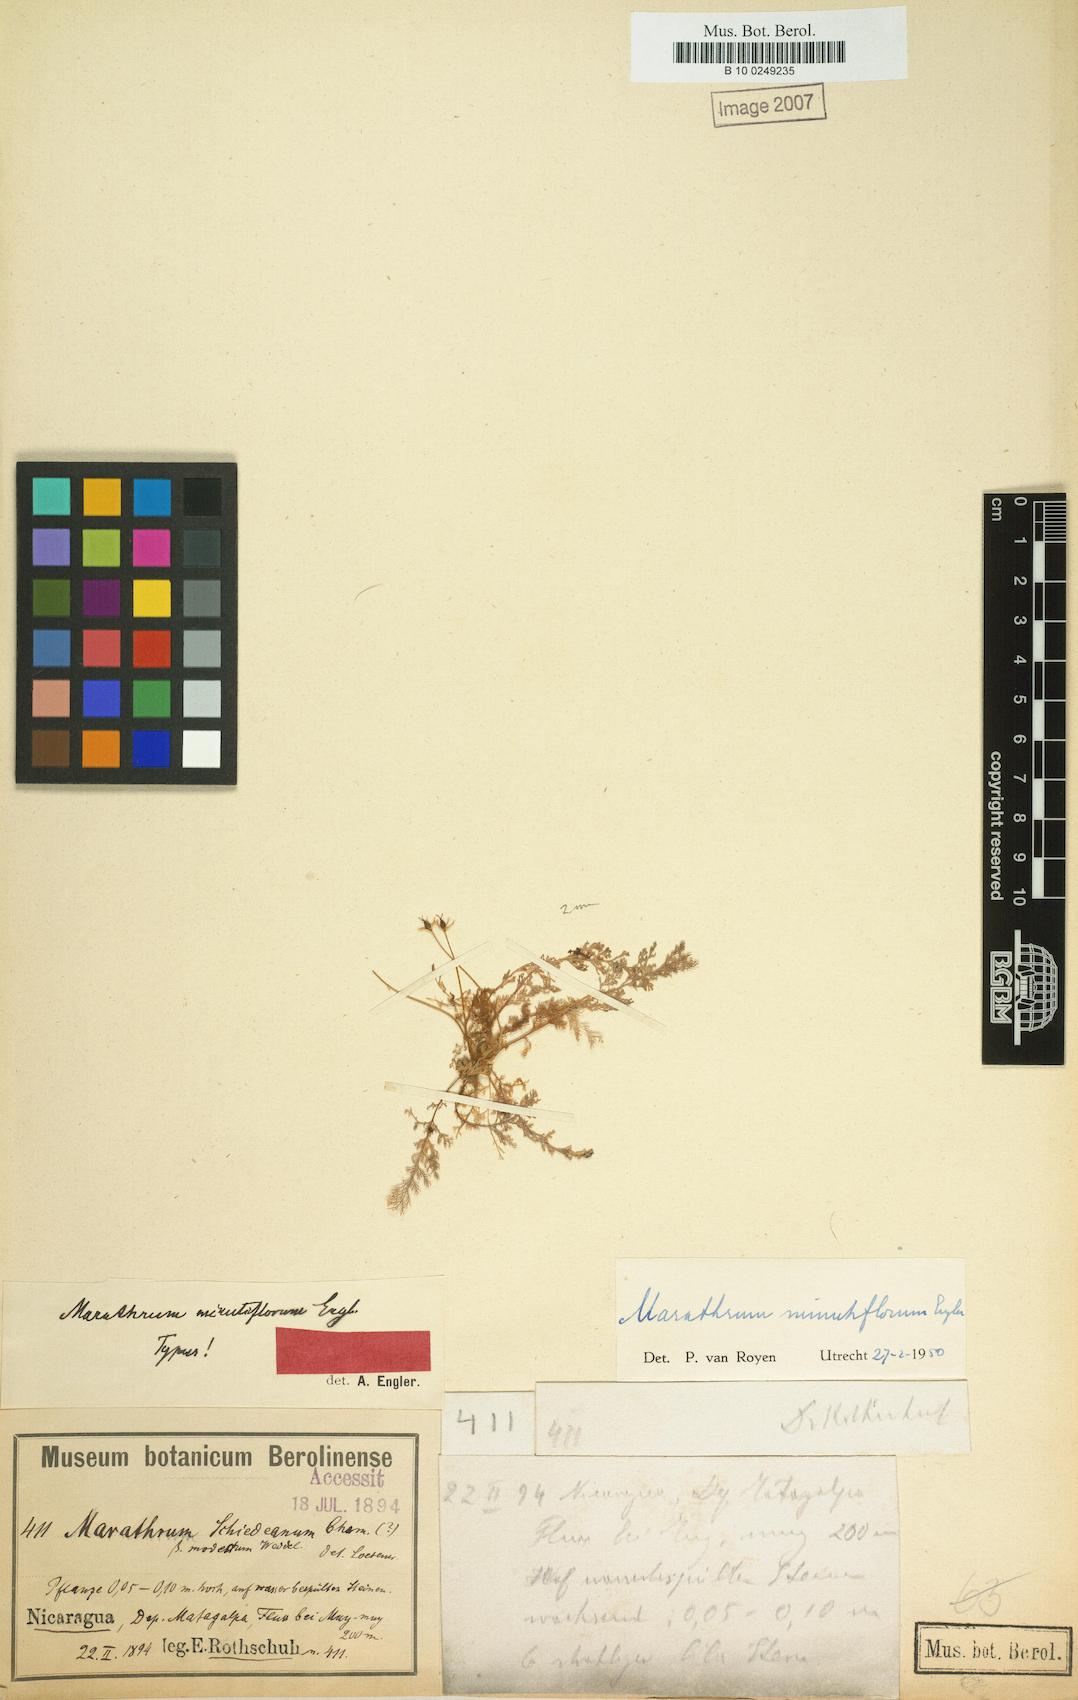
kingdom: Plantae
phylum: Tracheophyta
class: Magnoliopsida
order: Malpighiales
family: Podostemaceae
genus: Marathrum
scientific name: Marathrum foeniculaceum
